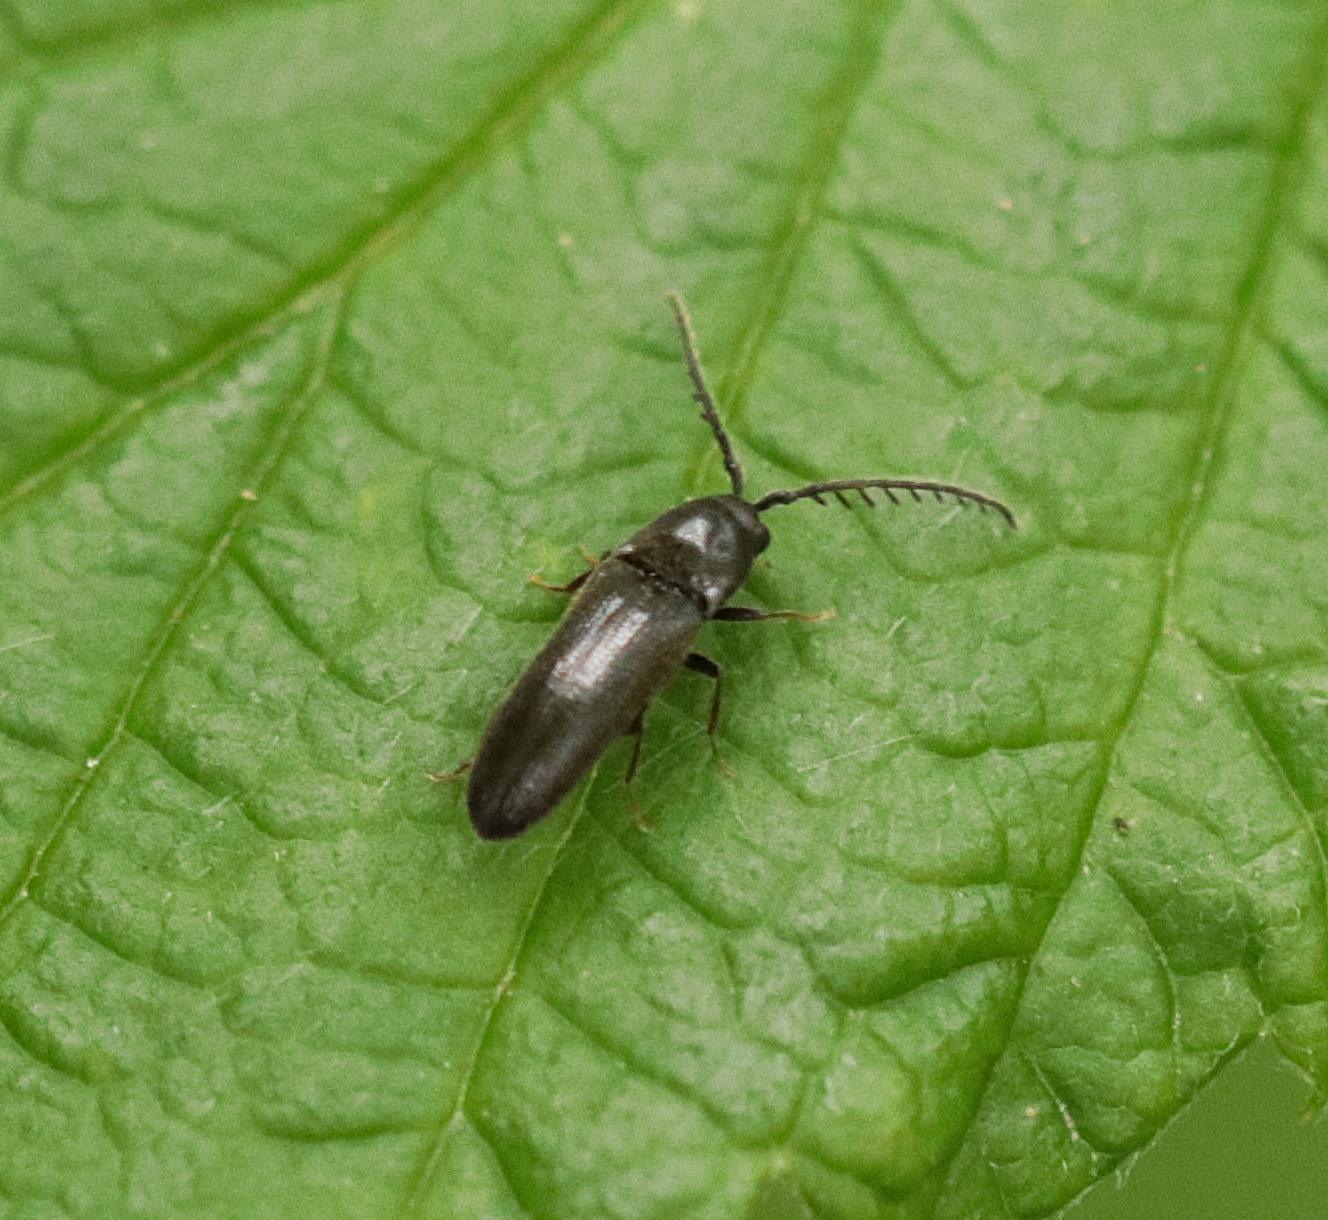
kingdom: Animalia
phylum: Arthropoda
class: Insecta
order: Coleoptera
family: Eucnemidae
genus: Microrhagus
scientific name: Microrhagus pygmaeus
